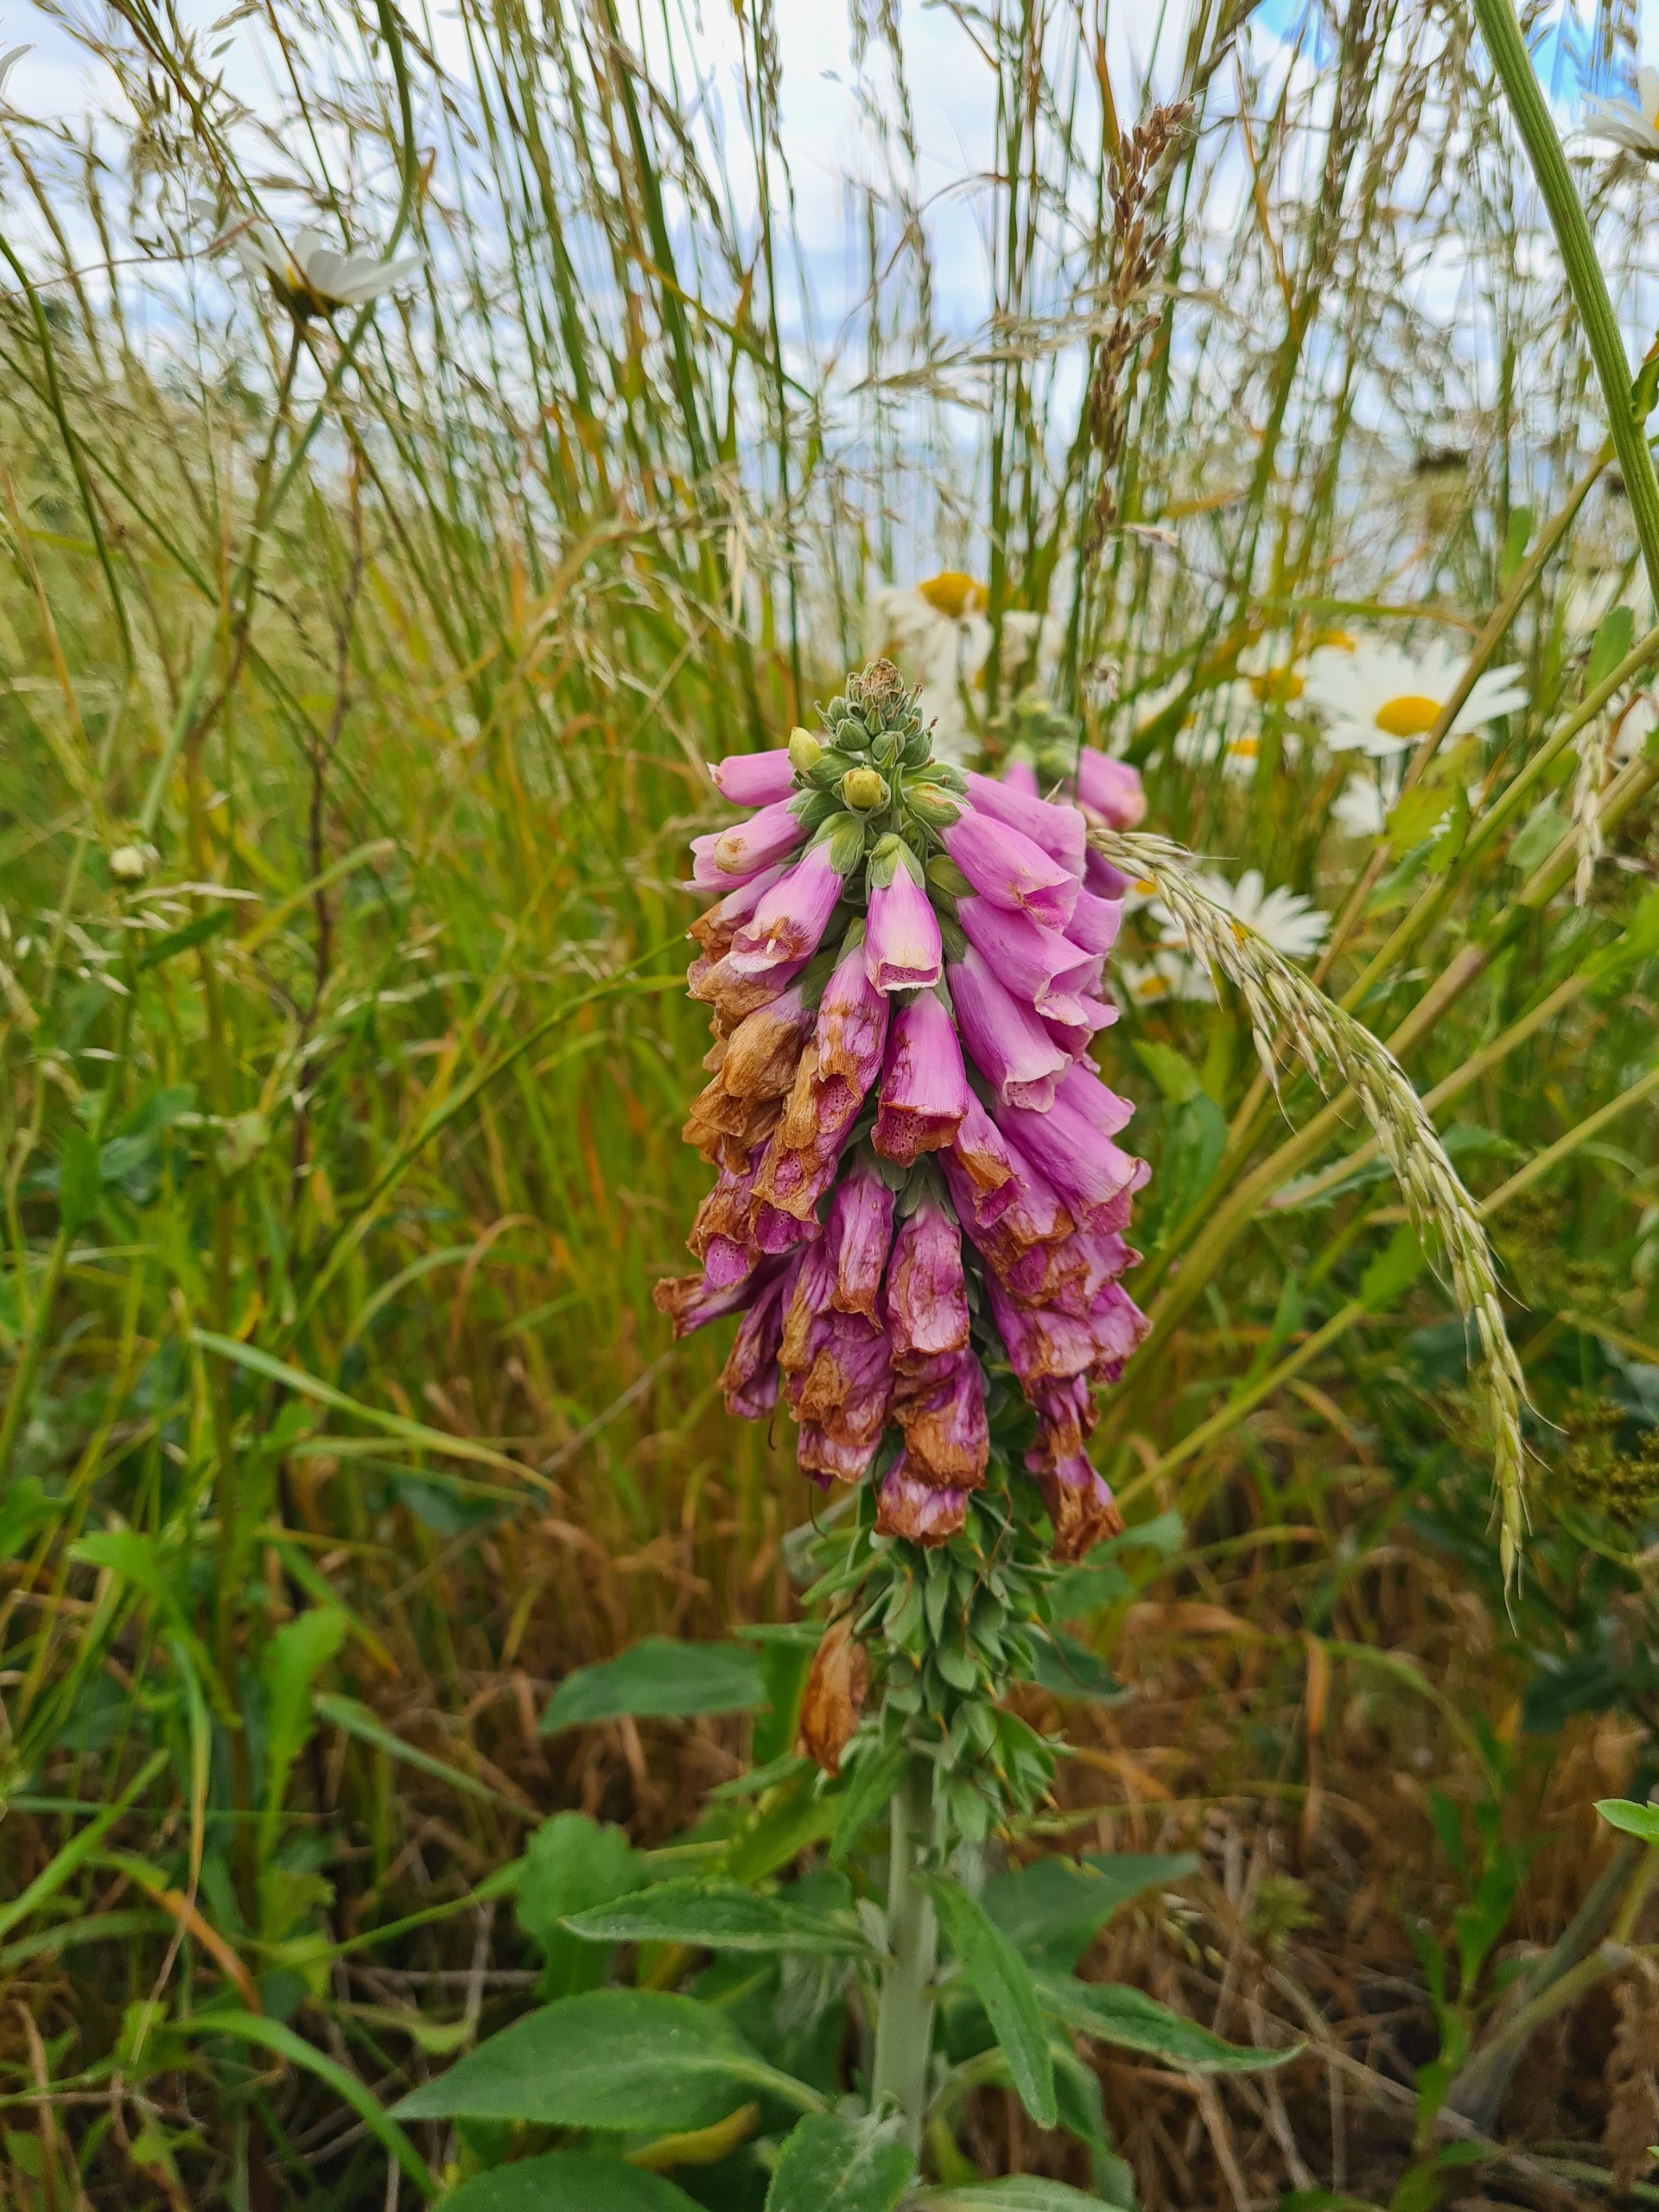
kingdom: Plantae
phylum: Tracheophyta
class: Magnoliopsida
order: Lamiales
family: Plantaginaceae
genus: Digitalis
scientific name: Digitalis purpurea
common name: Almindelig fingerbøl
